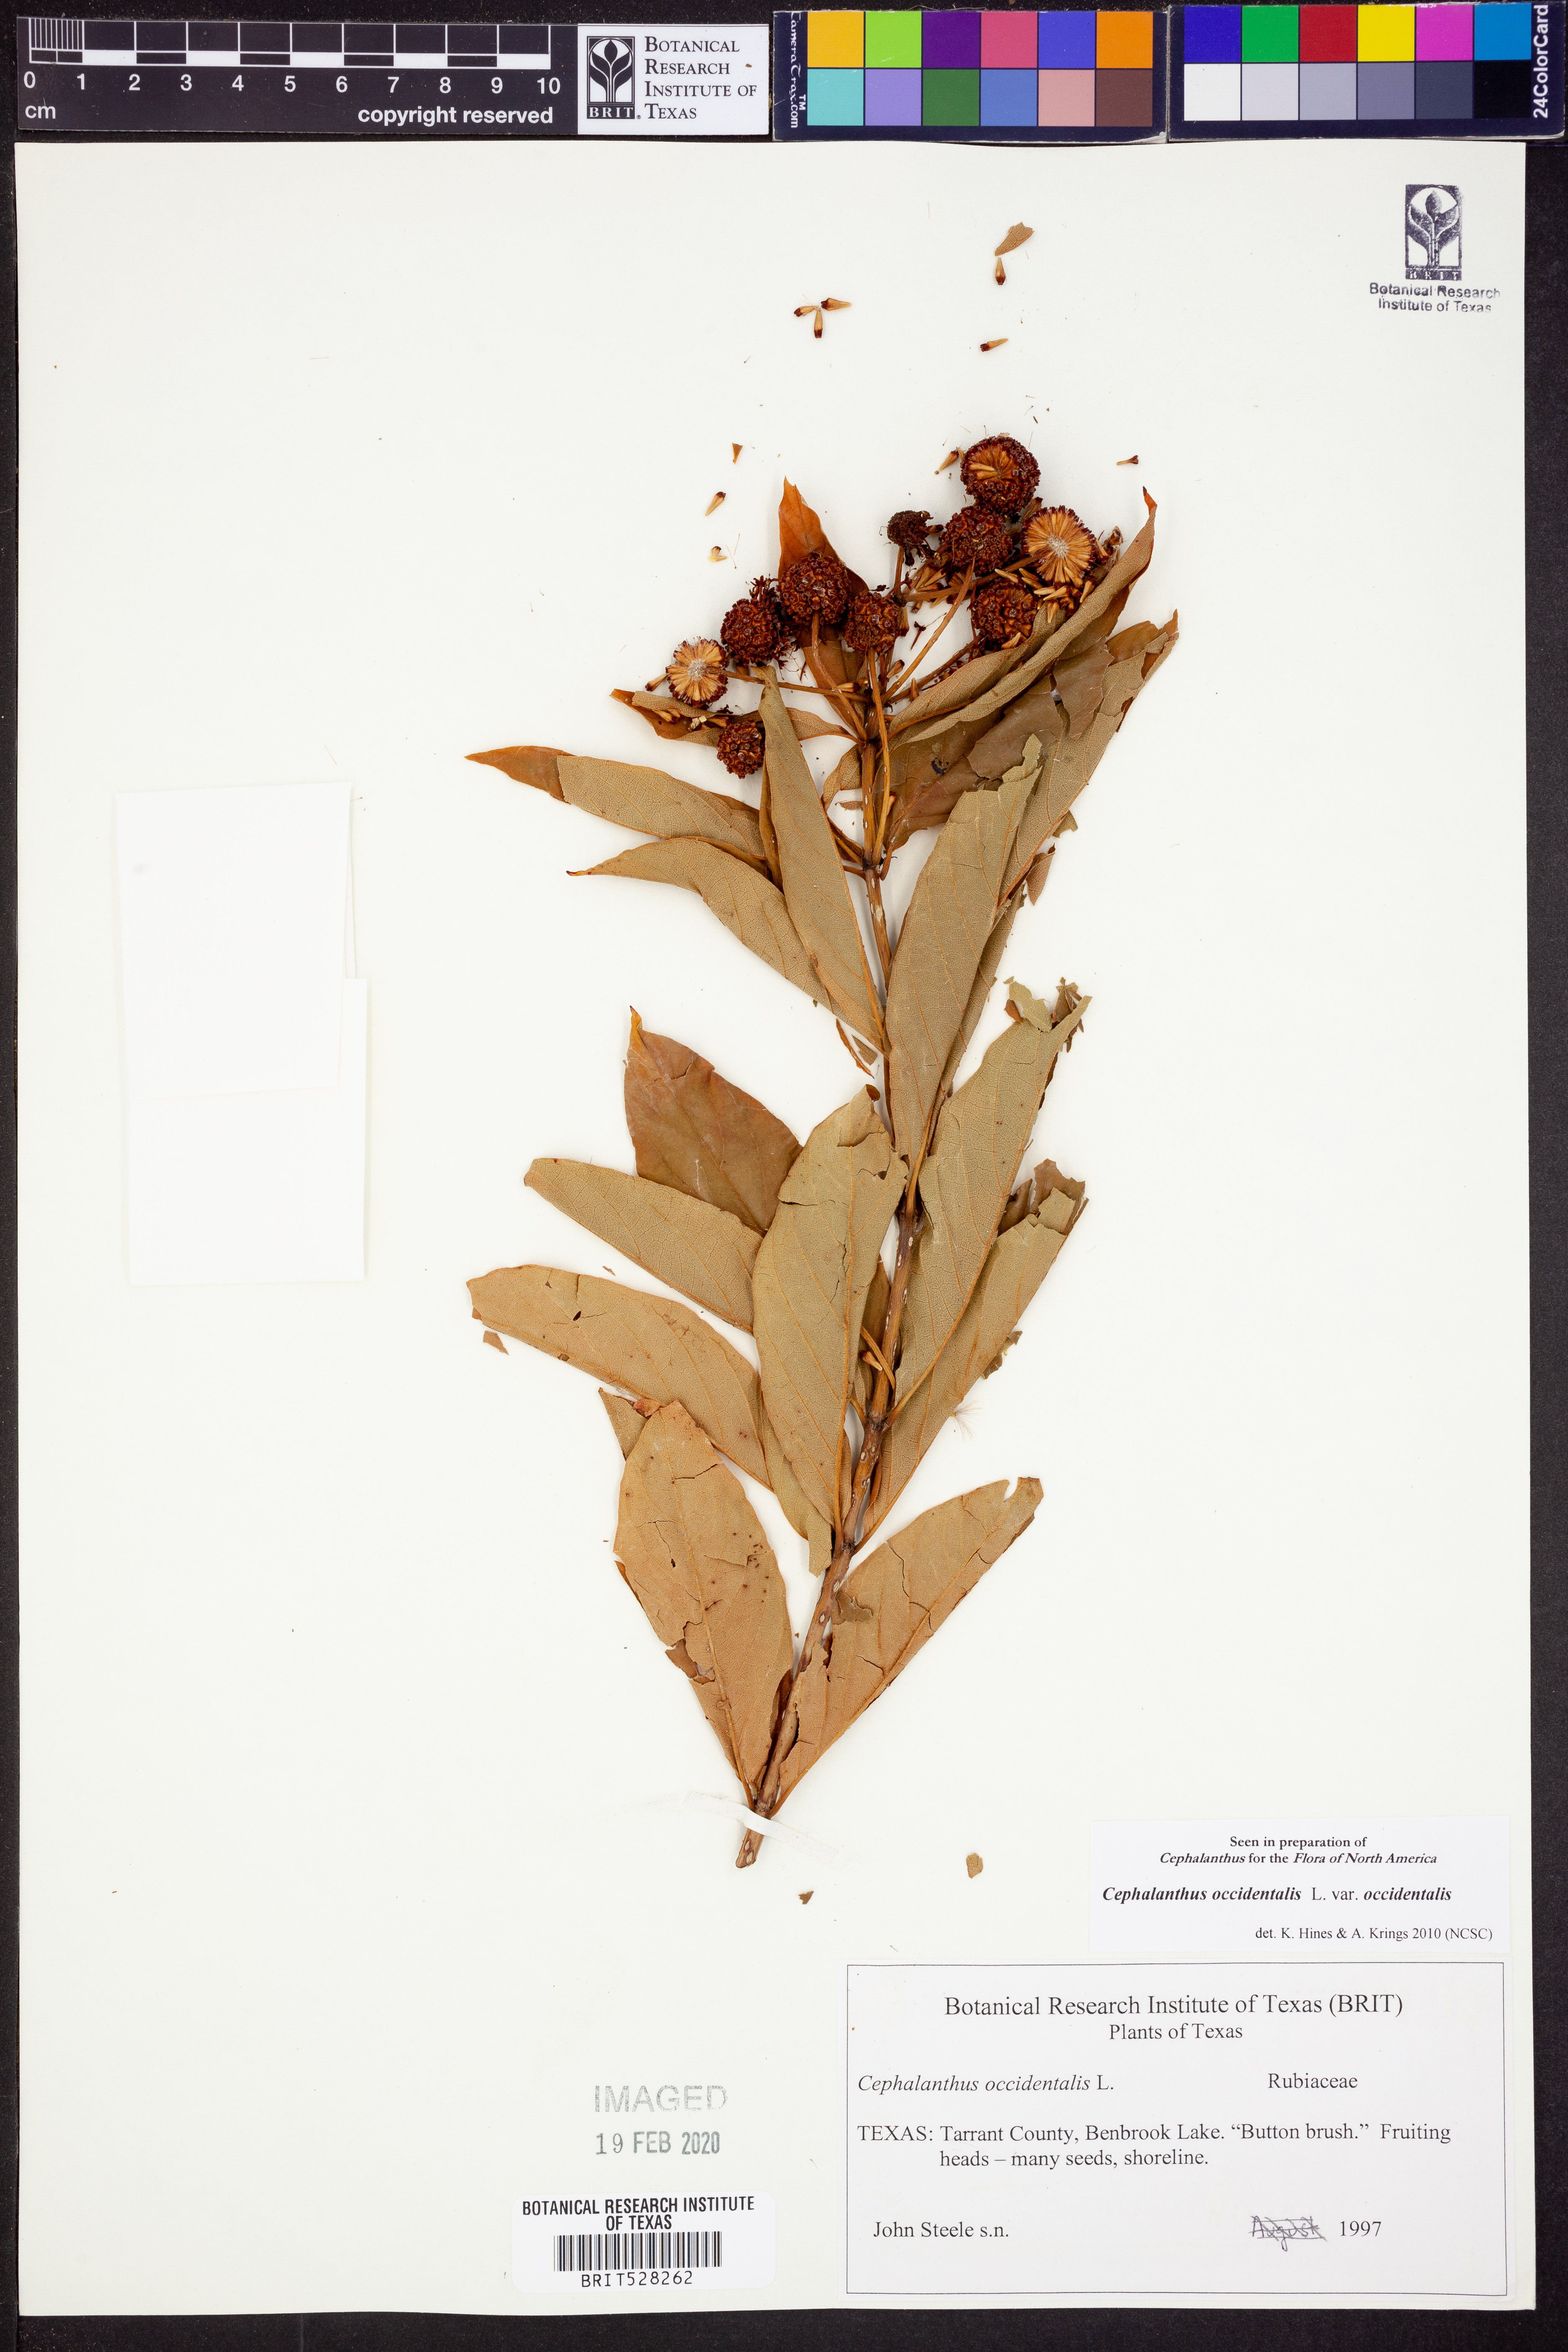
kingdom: Plantae
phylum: Tracheophyta
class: Magnoliopsida
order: Gentianales
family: Rubiaceae
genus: Cephalanthus
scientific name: Cephalanthus occidentalis
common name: Button-willow
